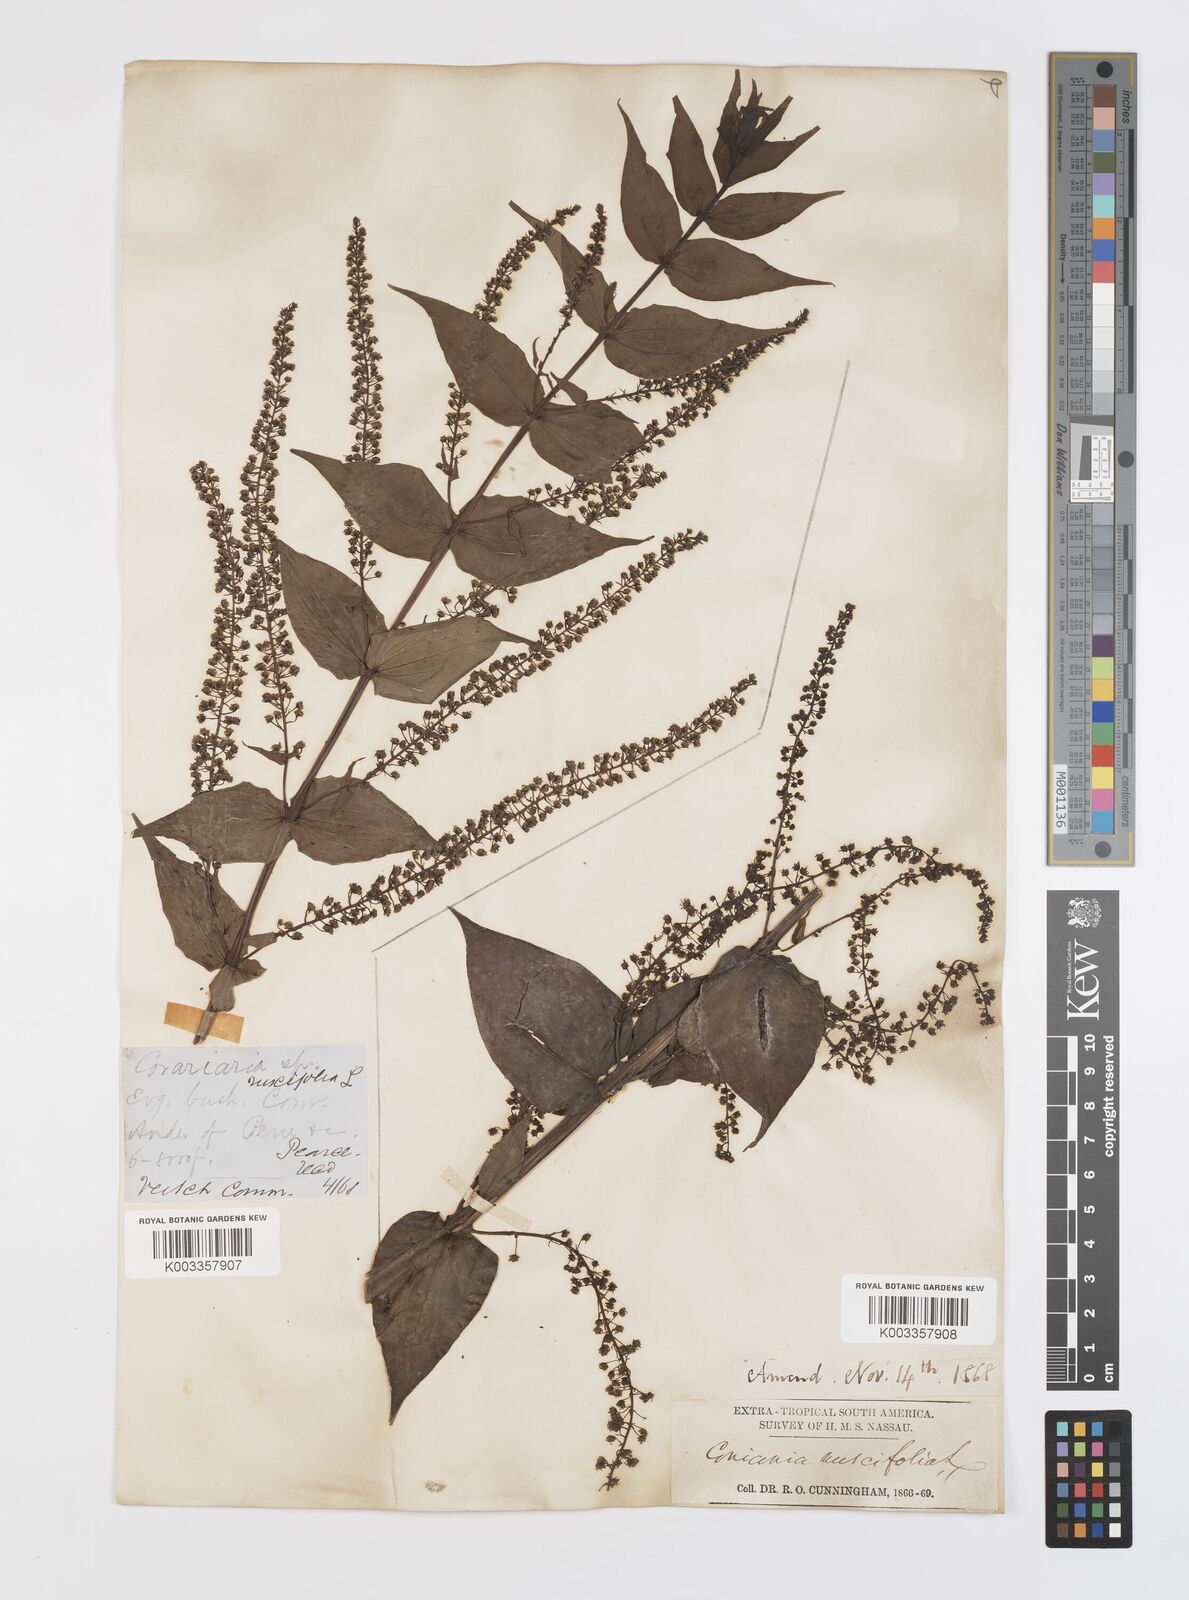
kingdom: Plantae
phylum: Tracheophyta
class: Magnoliopsida
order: Cucurbitales
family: Coriariaceae
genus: Coriaria
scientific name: Coriaria ruscifolia
